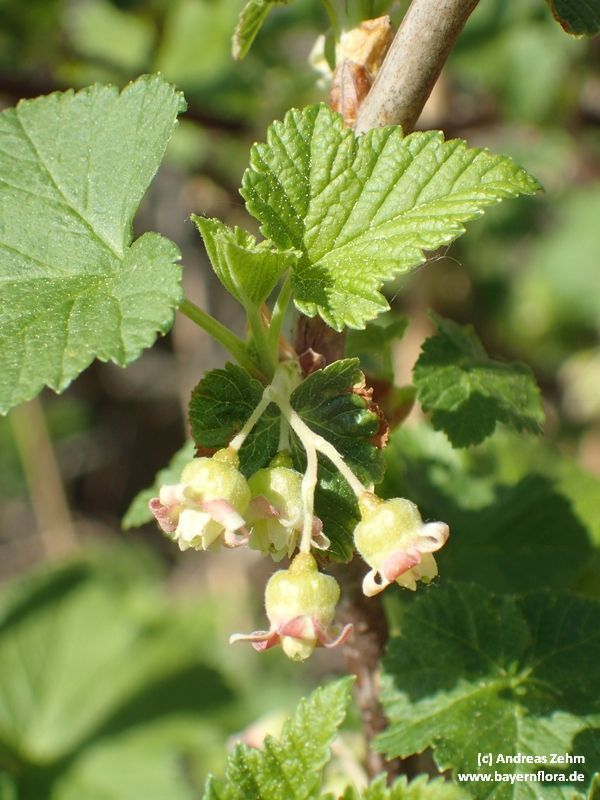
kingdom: Plantae
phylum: Tracheophyta
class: Magnoliopsida
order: Saxifragales
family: Grossulariaceae
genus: Ribes
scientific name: Ribes nigrum
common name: Black currant
